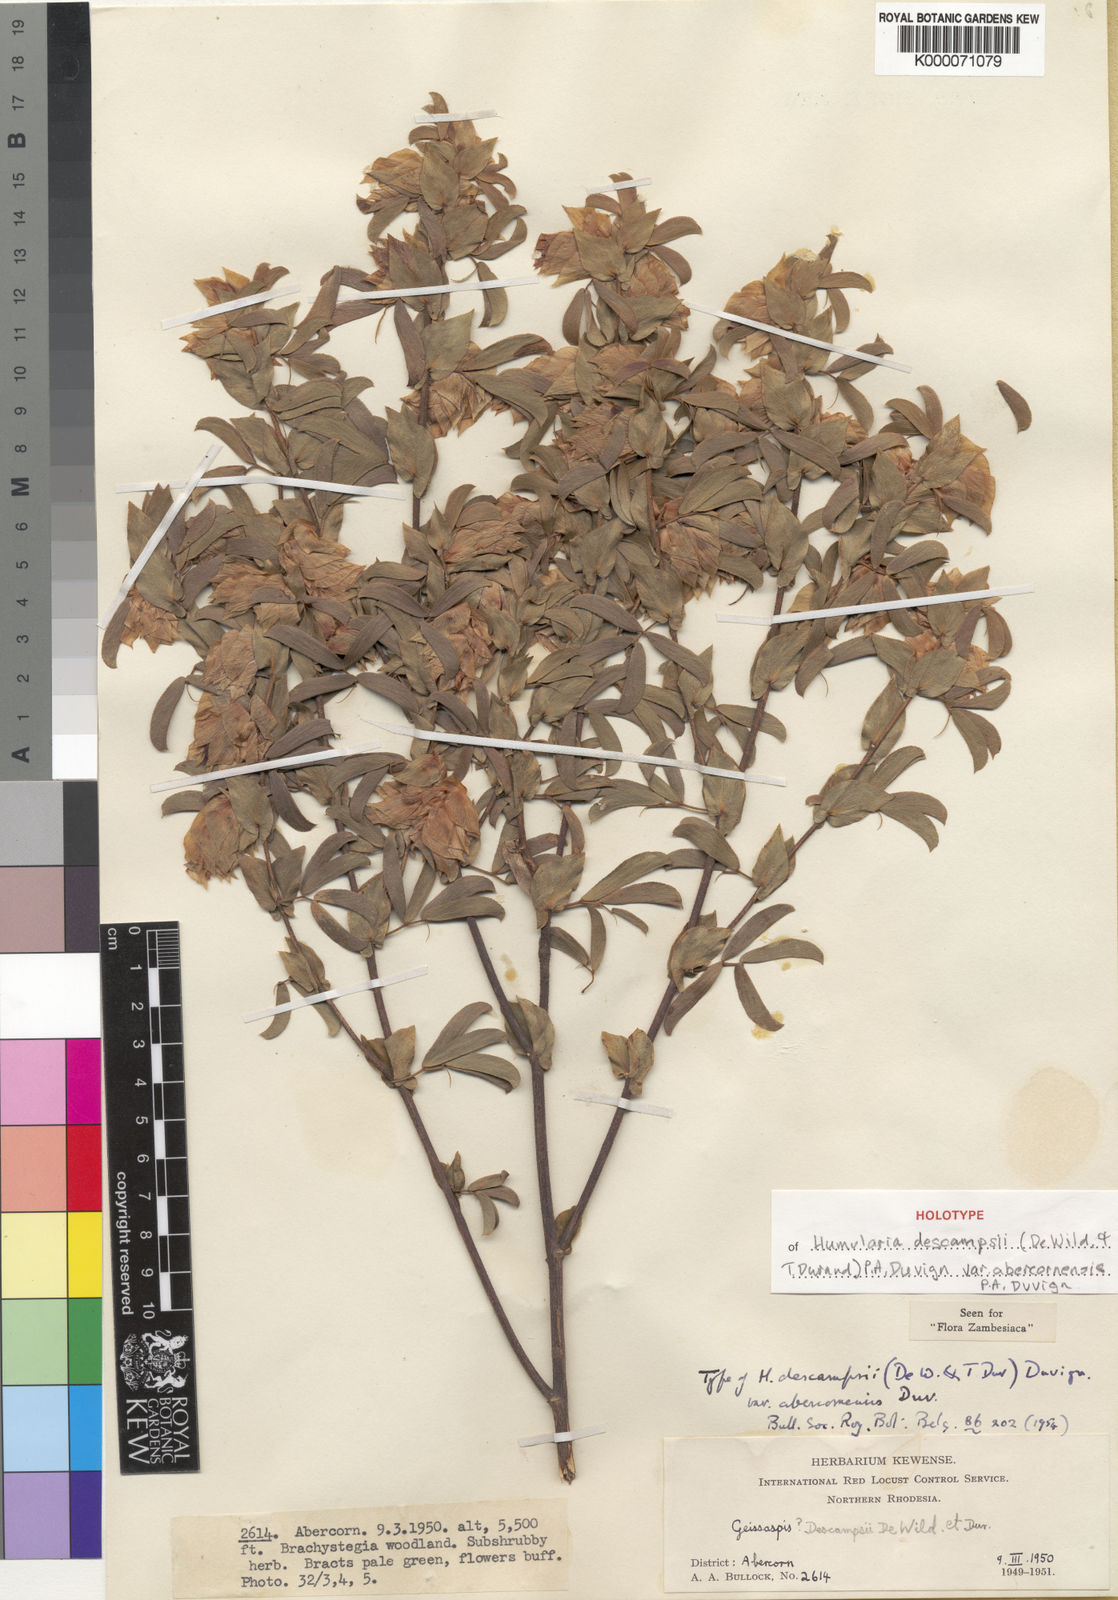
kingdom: Plantae
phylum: Tracheophyta
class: Magnoliopsida
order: Fabales
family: Fabaceae
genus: Humularia
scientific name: Humularia
